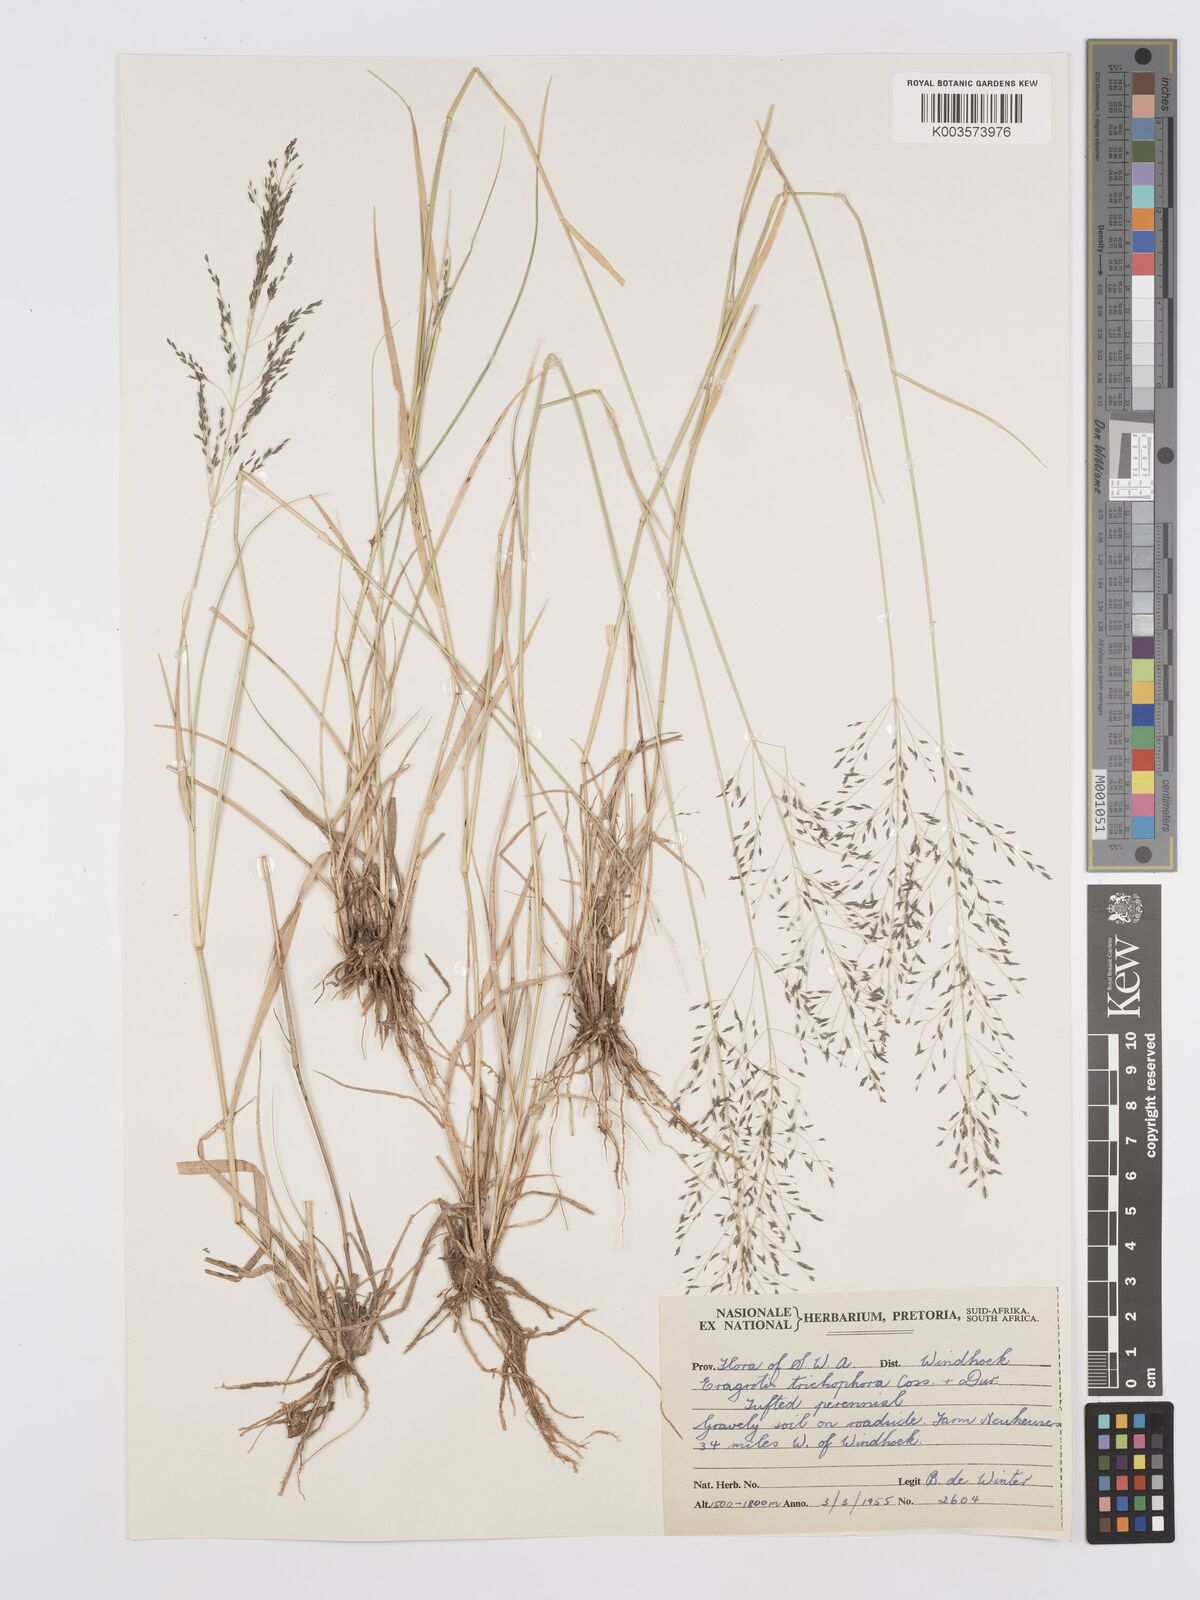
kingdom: Plantae
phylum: Tracheophyta
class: Liliopsida
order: Poales
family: Poaceae
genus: Eragrostis
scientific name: Eragrostis cylindriflora
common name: Cylinderflower lovegrass
